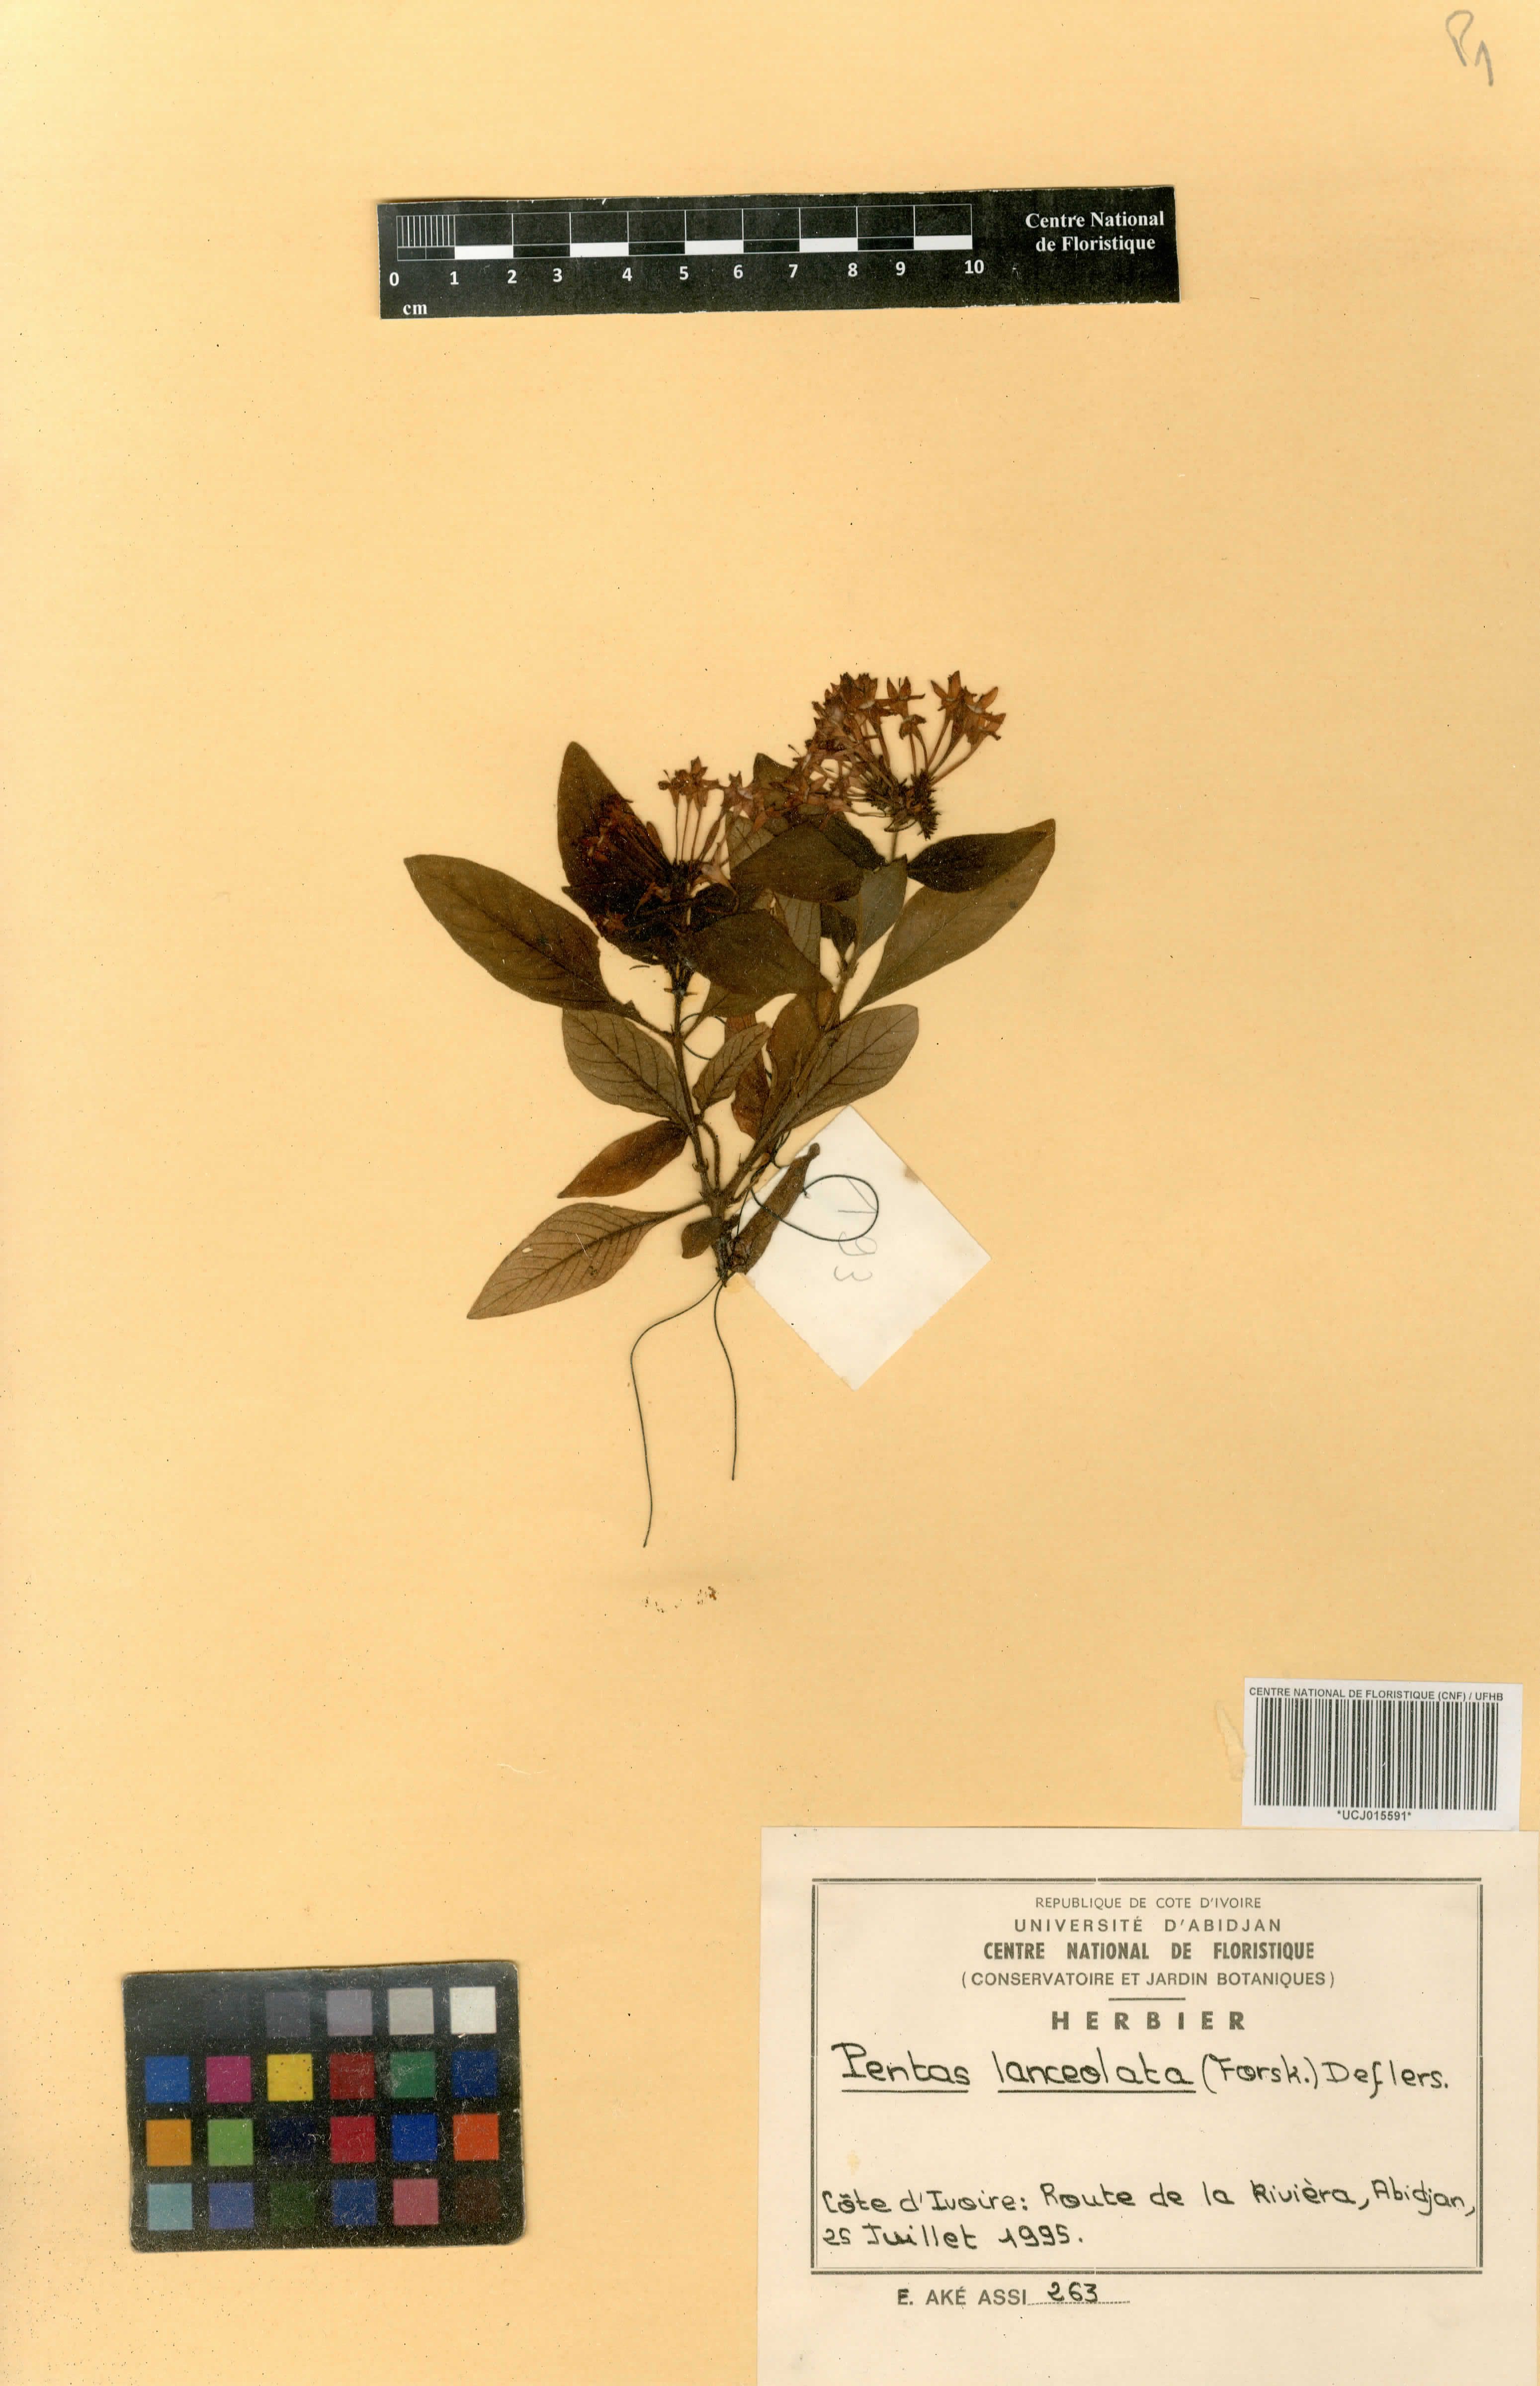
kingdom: Plantae
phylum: Tracheophyta
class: Magnoliopsida
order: Gentianales
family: Rubiaceae
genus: Pentas
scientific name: Pentas lanceolata
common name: Egyptian starcluster
